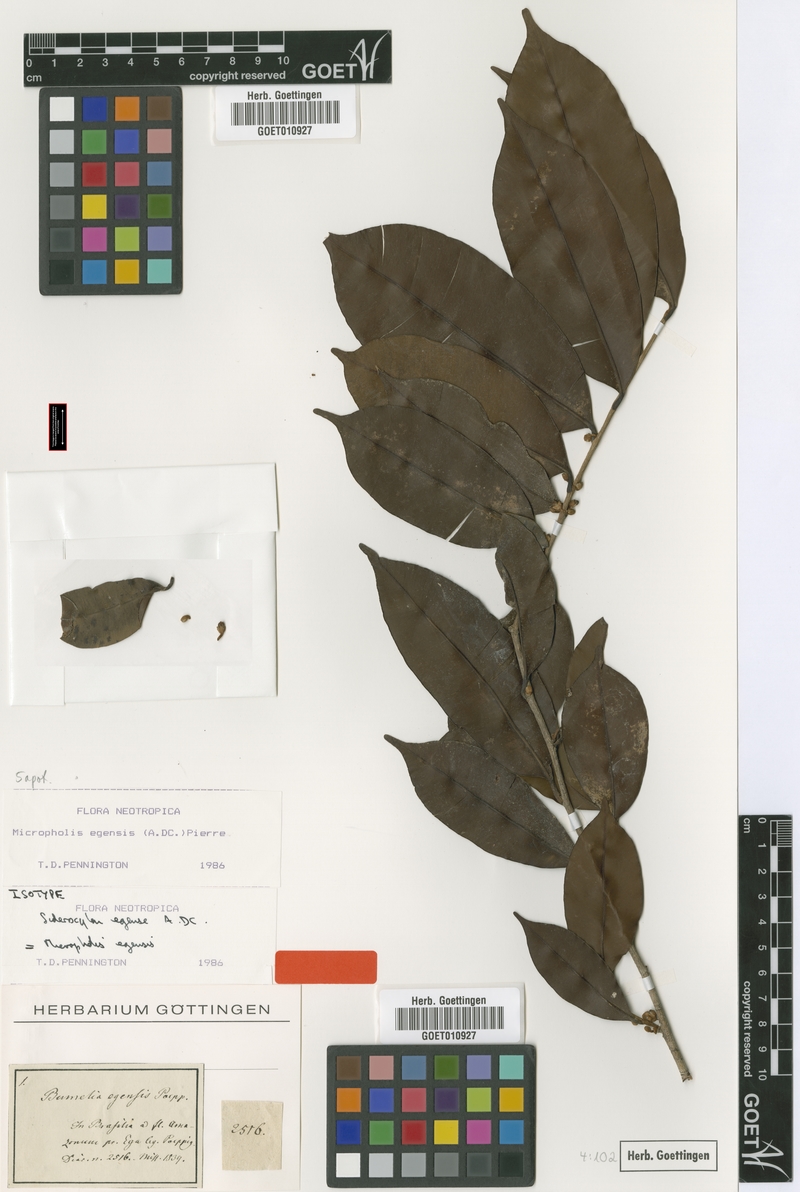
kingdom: Plantae
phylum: Tracheophyta
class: Magnoliopsida
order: Ericales
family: Sapotaceae
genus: Micropholis
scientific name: Micropholis egensis
